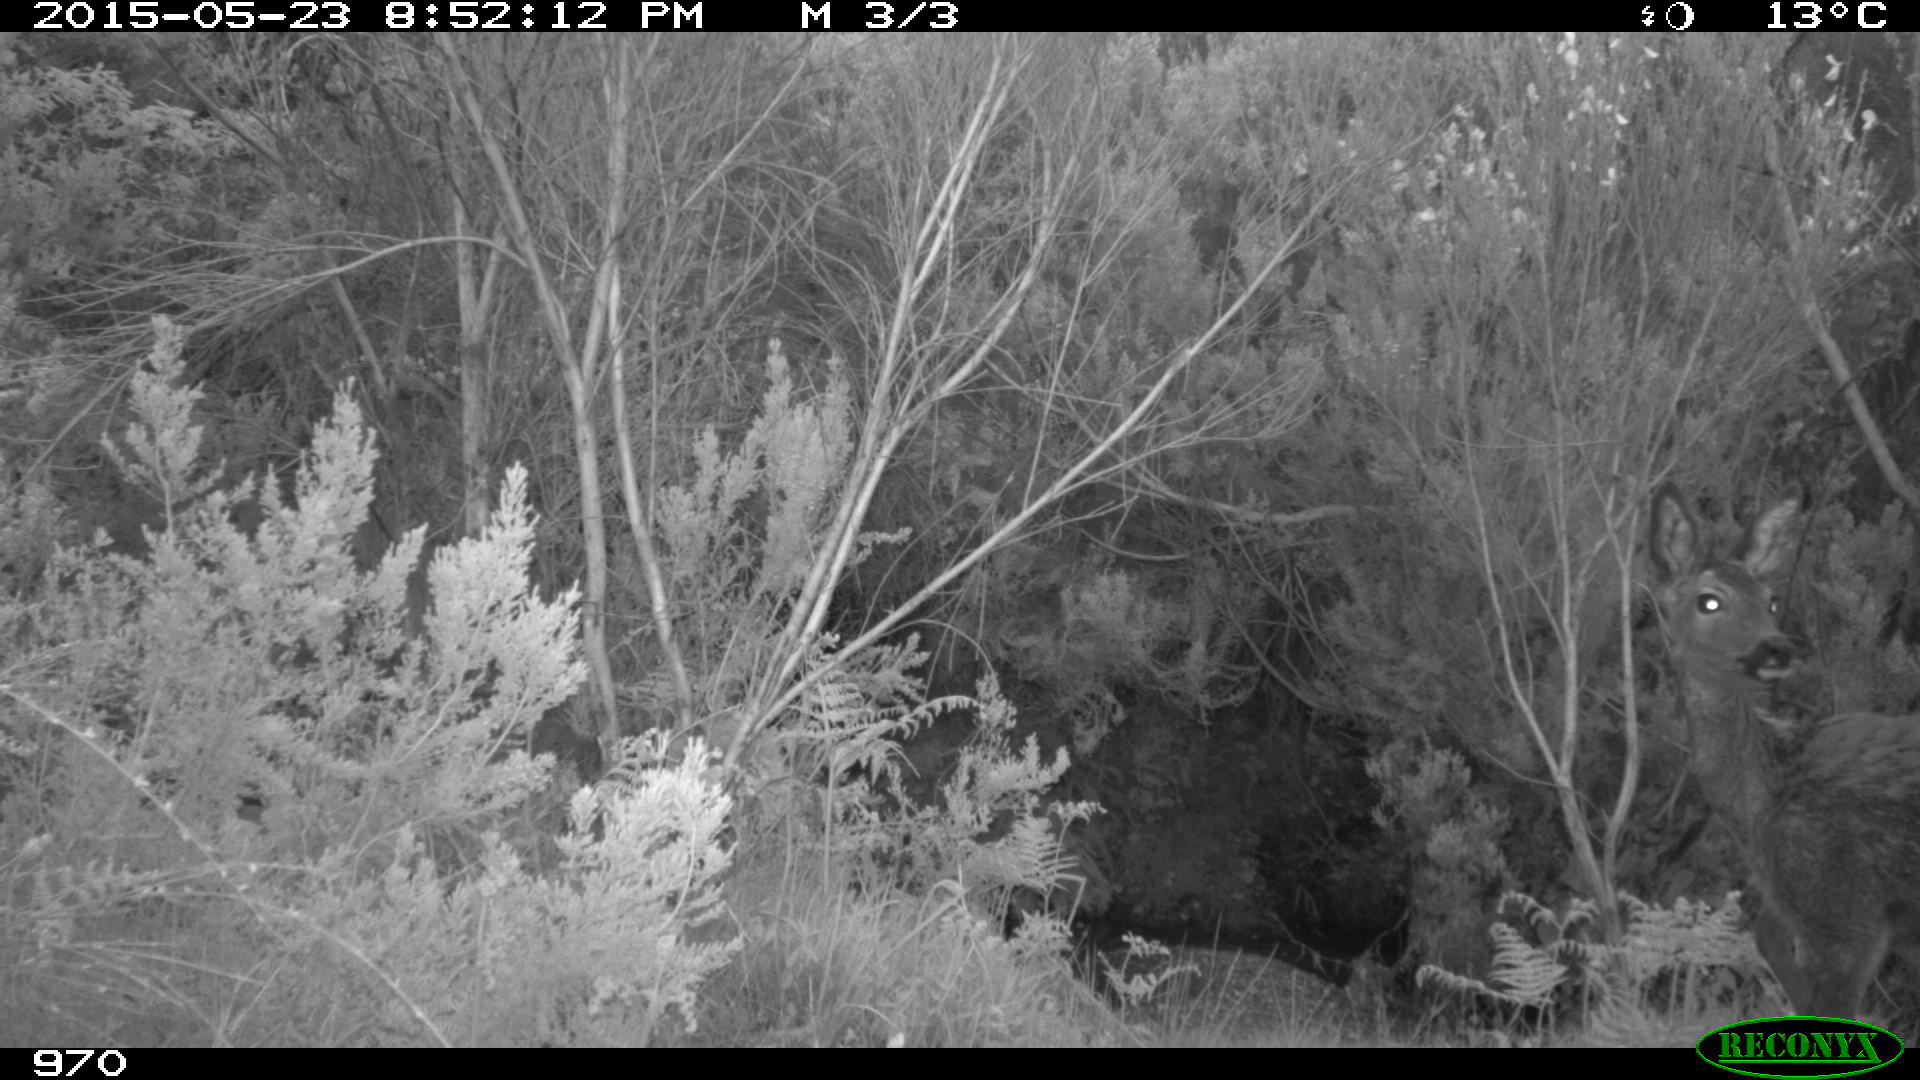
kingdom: Animalia
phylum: Chordata
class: Mammalia
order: Artiodactyla
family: Cervidae
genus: Capreolus
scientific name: Capreolus capreolus
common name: Western roe deer
